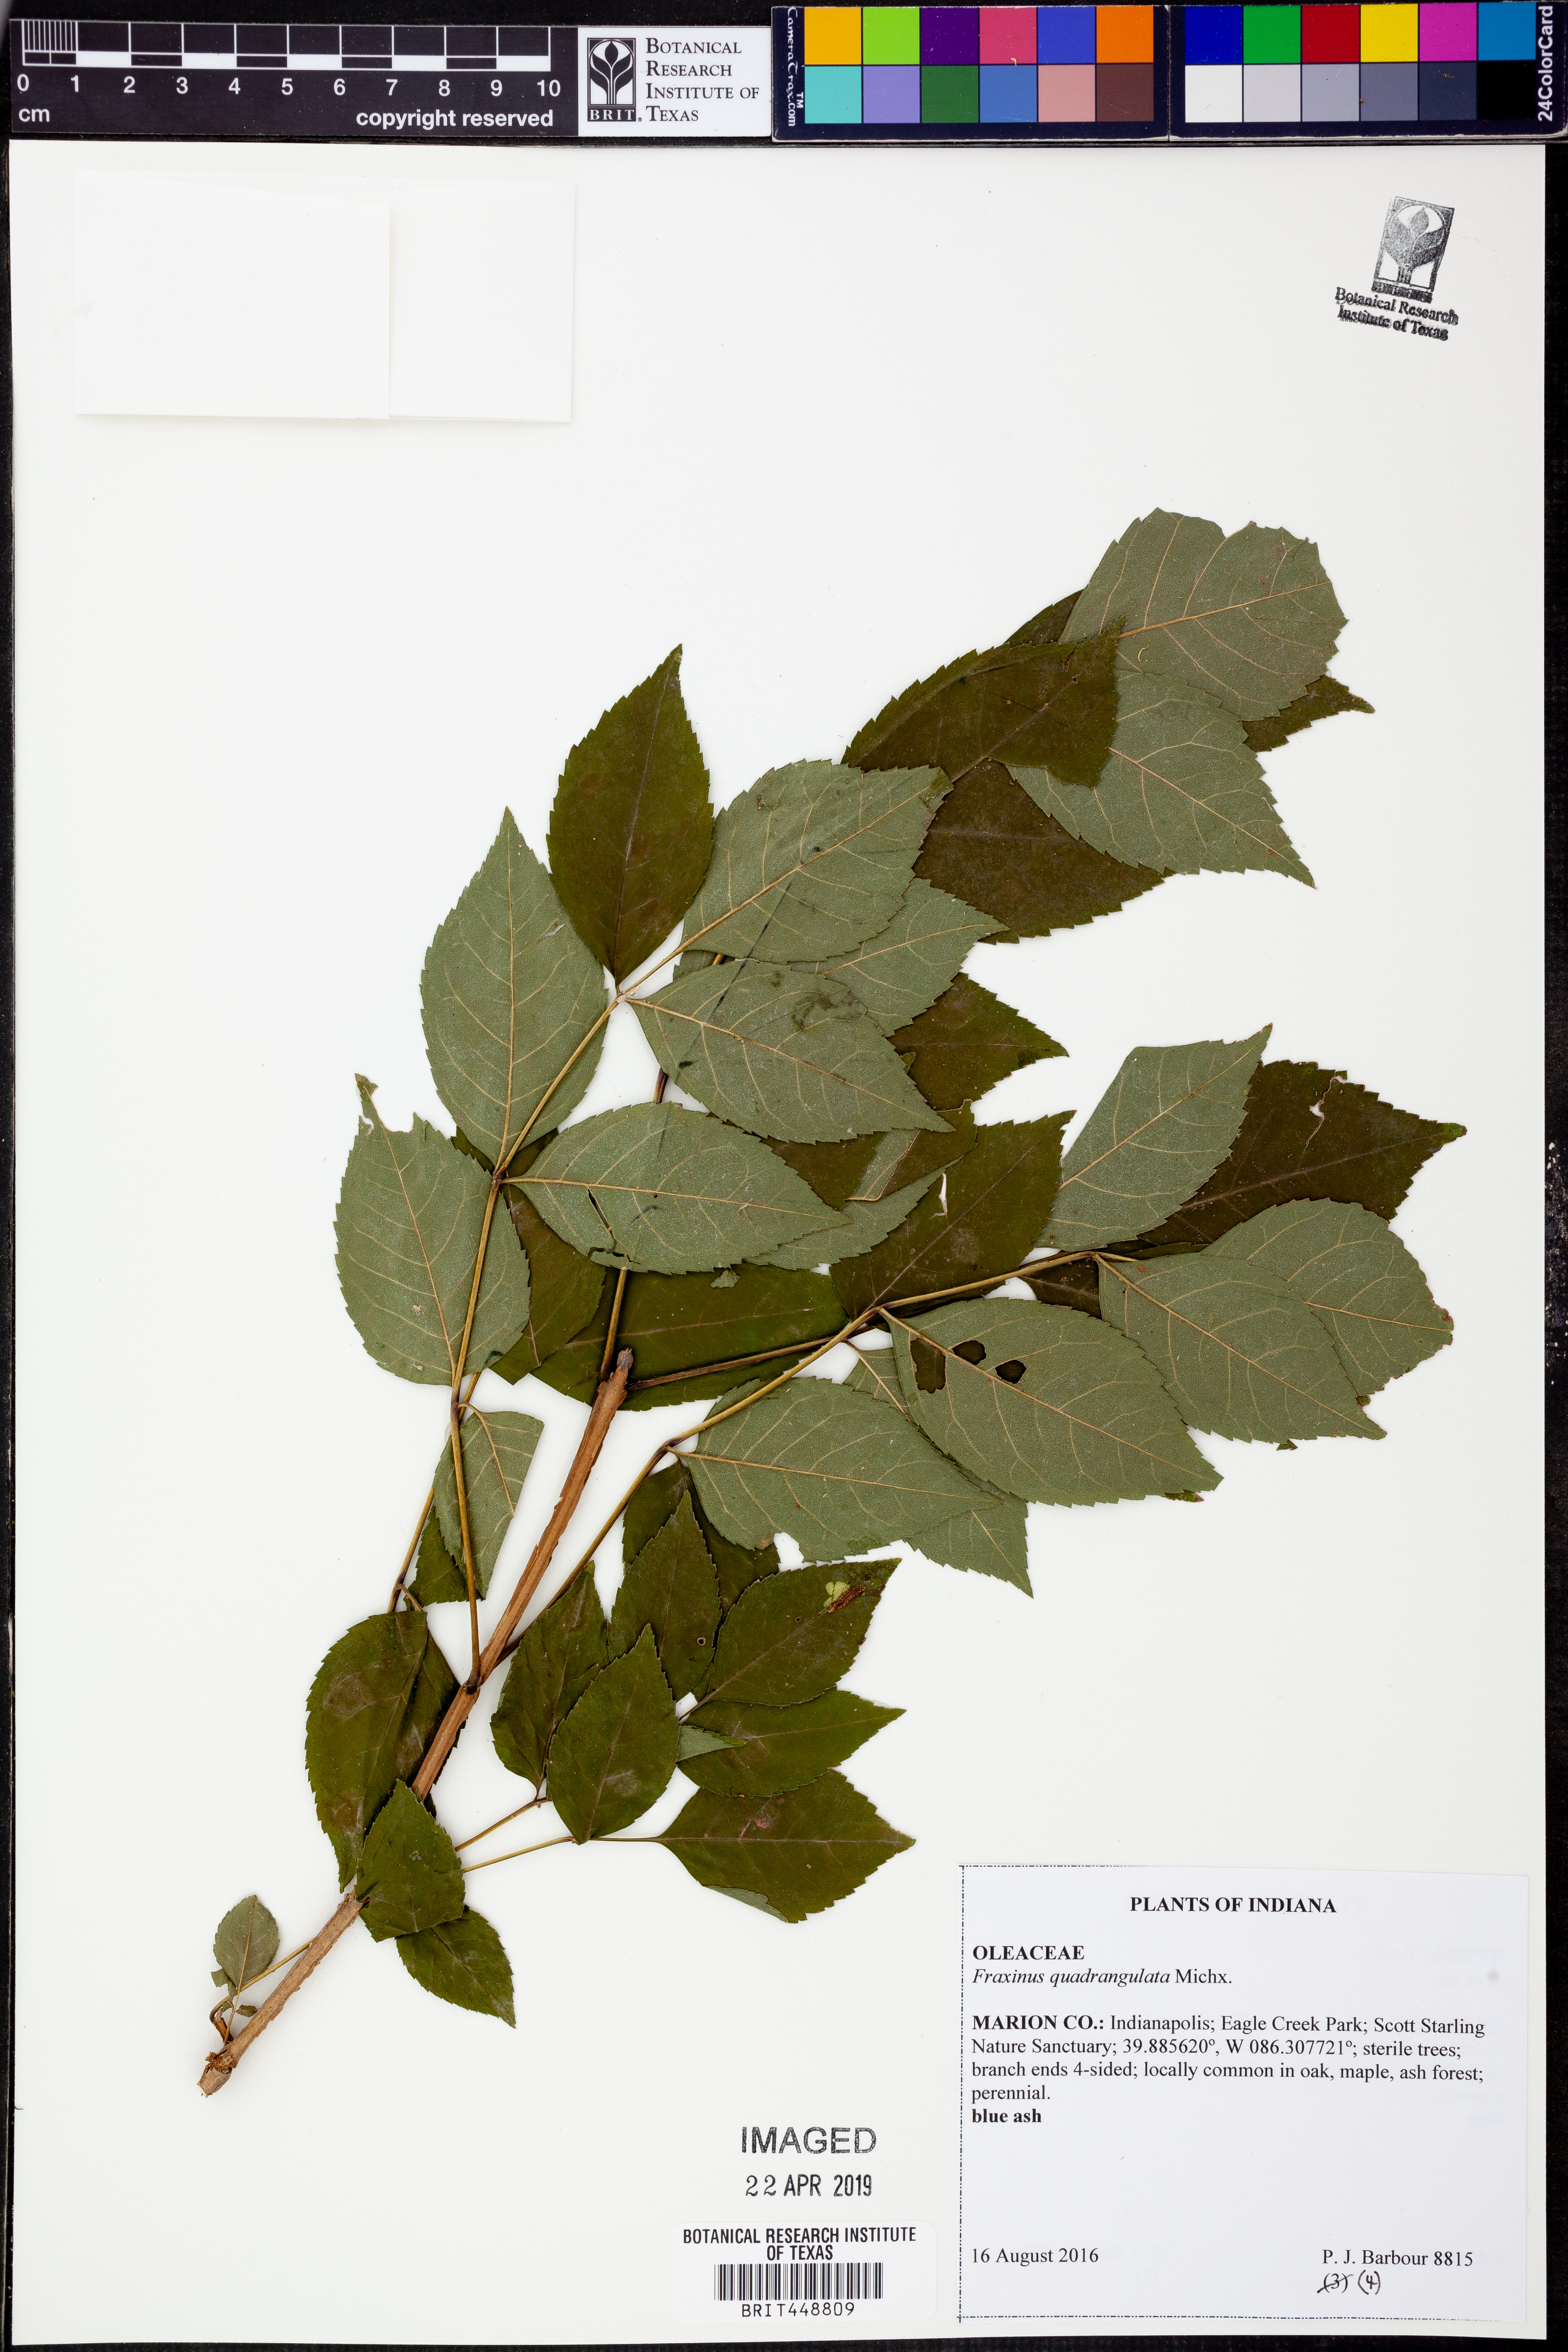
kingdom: Plantae
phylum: Tracheophyta
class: Magnoliopsida
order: Lamiales
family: Oleaceae
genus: Fraxinus
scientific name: Fraxinus quadrangulata
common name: Blue ash
